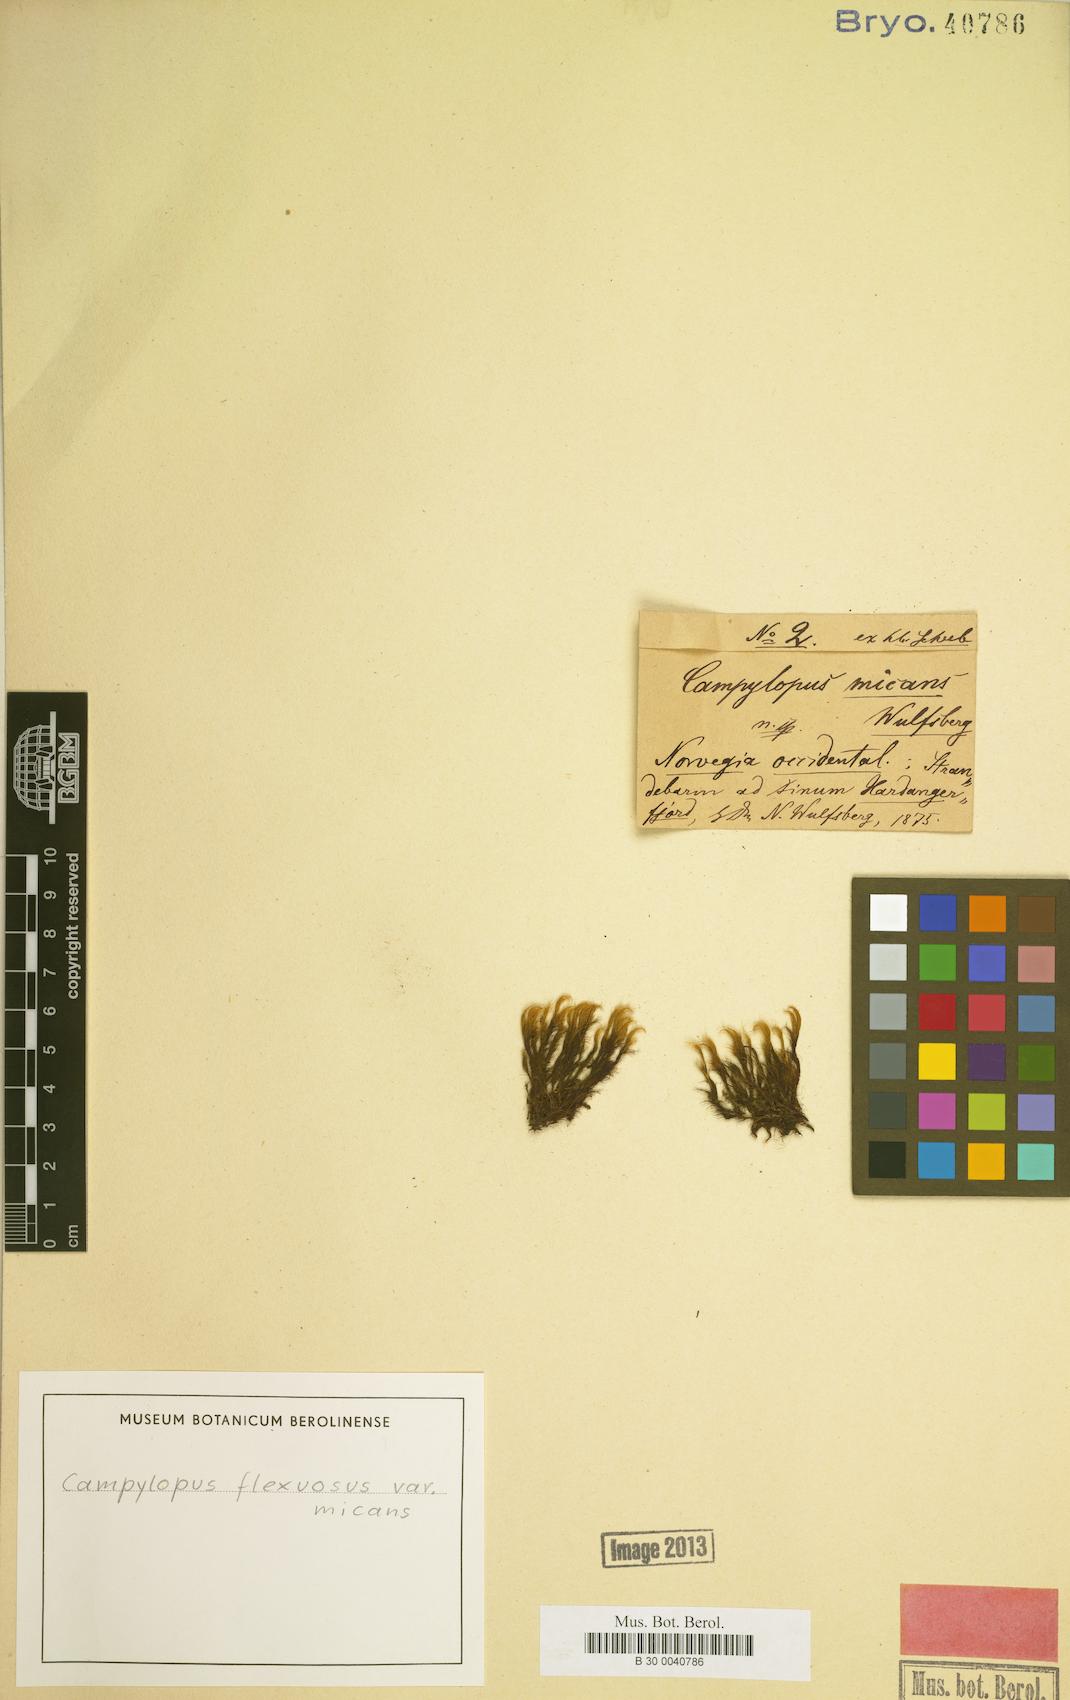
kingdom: Plantae
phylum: Bryophyta
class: Bryopsida
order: Dicranales
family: Leucobryaceae
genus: Campylopus
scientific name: Campylopus flexuosus
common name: Rusty swan-neck moss
